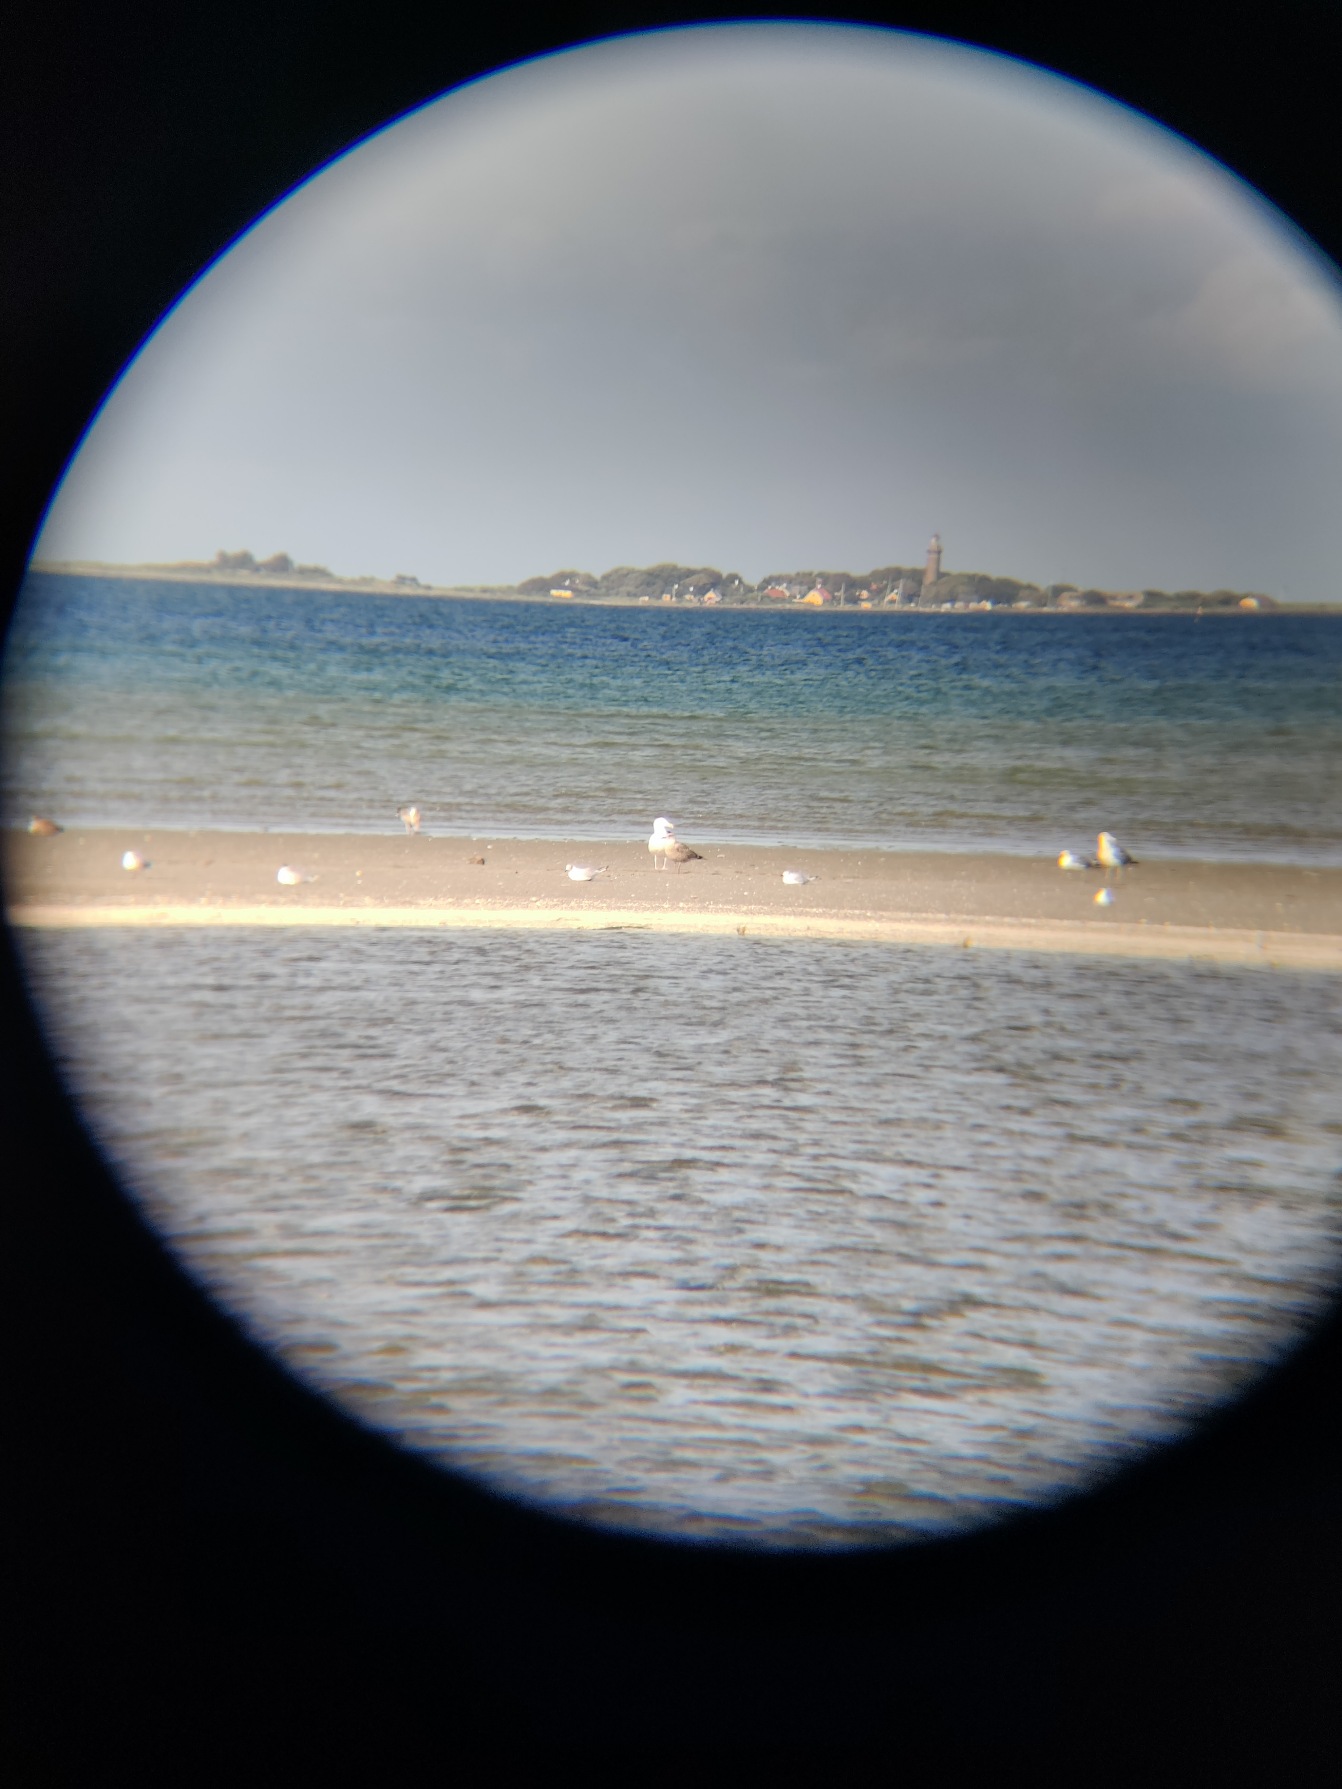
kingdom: Animalia
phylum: Chordata
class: Aves
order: Charadriiformes
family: Laridae
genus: Larus
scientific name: Larus marinus
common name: Svartbag
